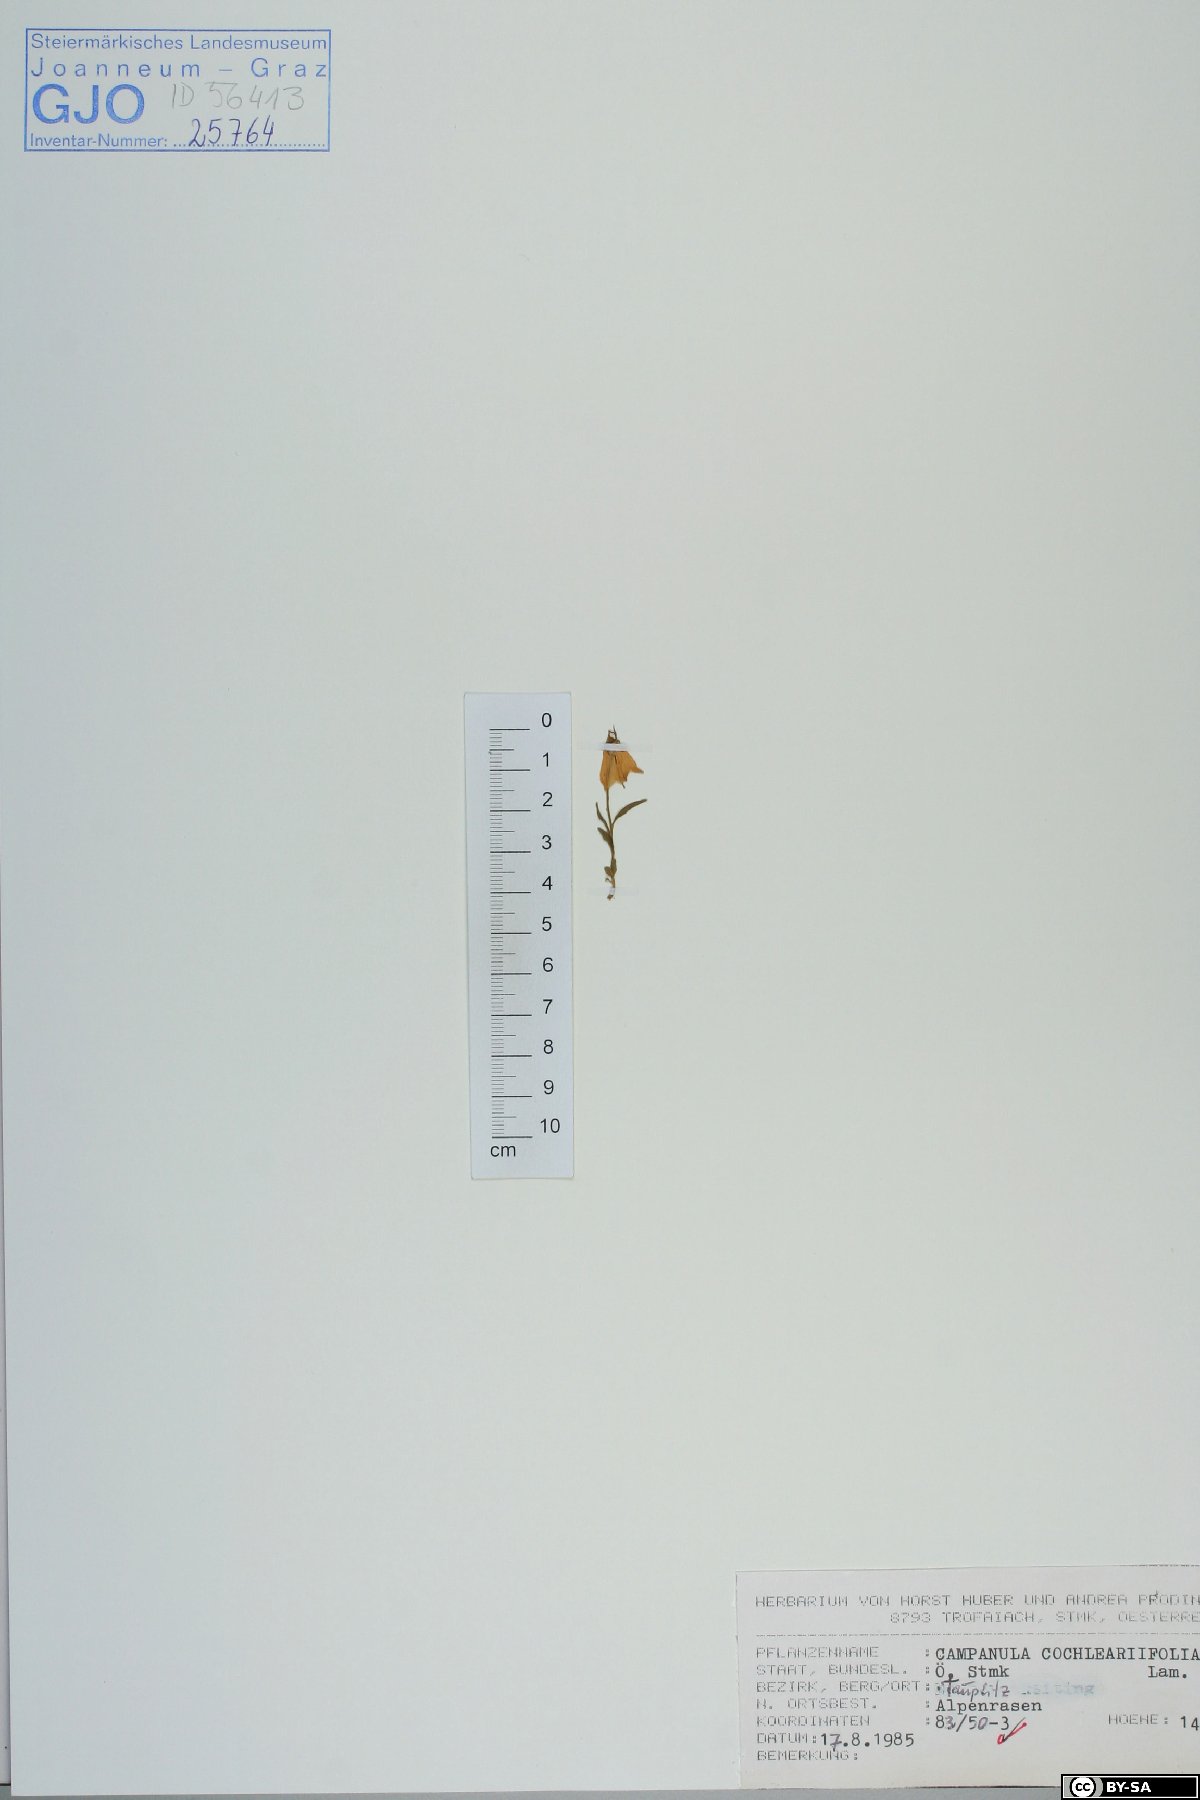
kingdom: Plantae
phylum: Tracheophyta
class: Magnoliopsida
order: Asterales
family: Campanulaceae
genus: Campanula
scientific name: Campanula cochleariifolia
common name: Fairies'-thimbles
